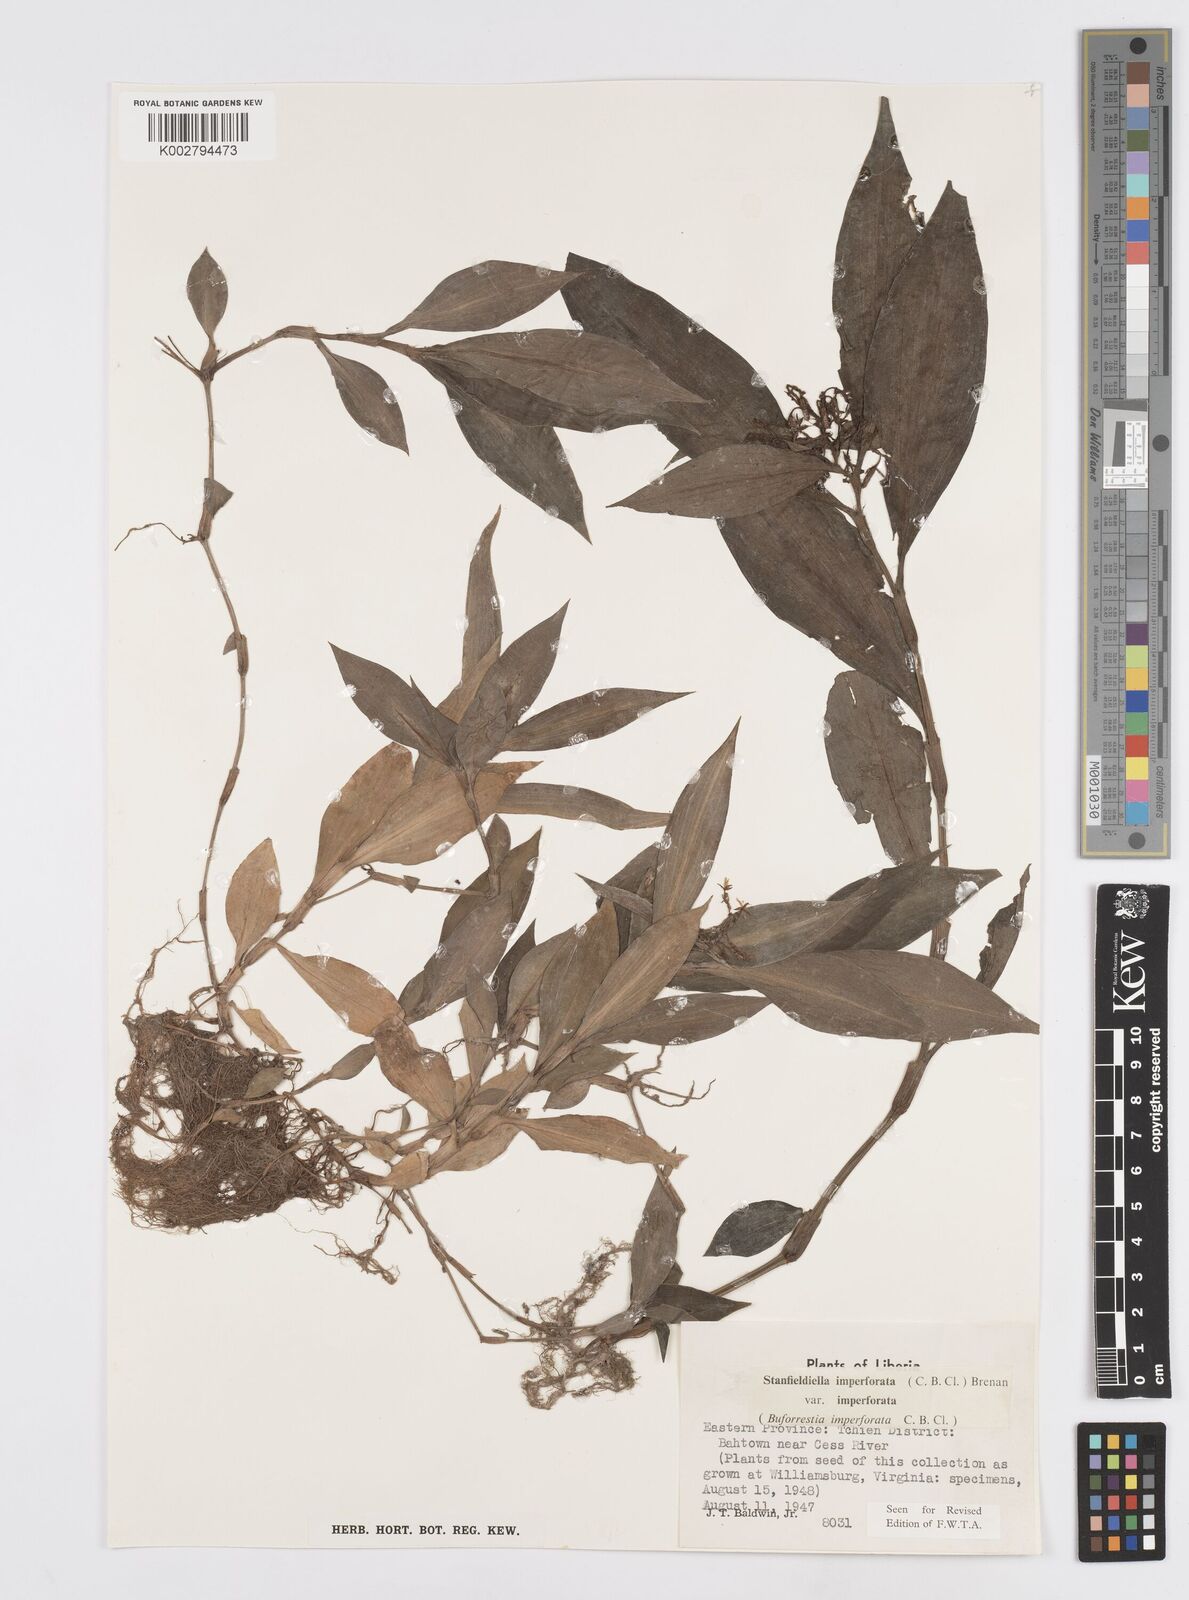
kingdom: Plantae
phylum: Tracheophyta
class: Liliopsida
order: Commelinales
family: Commelinaceae
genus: Stanfieldiella
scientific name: Stanfieldiella imperforata
